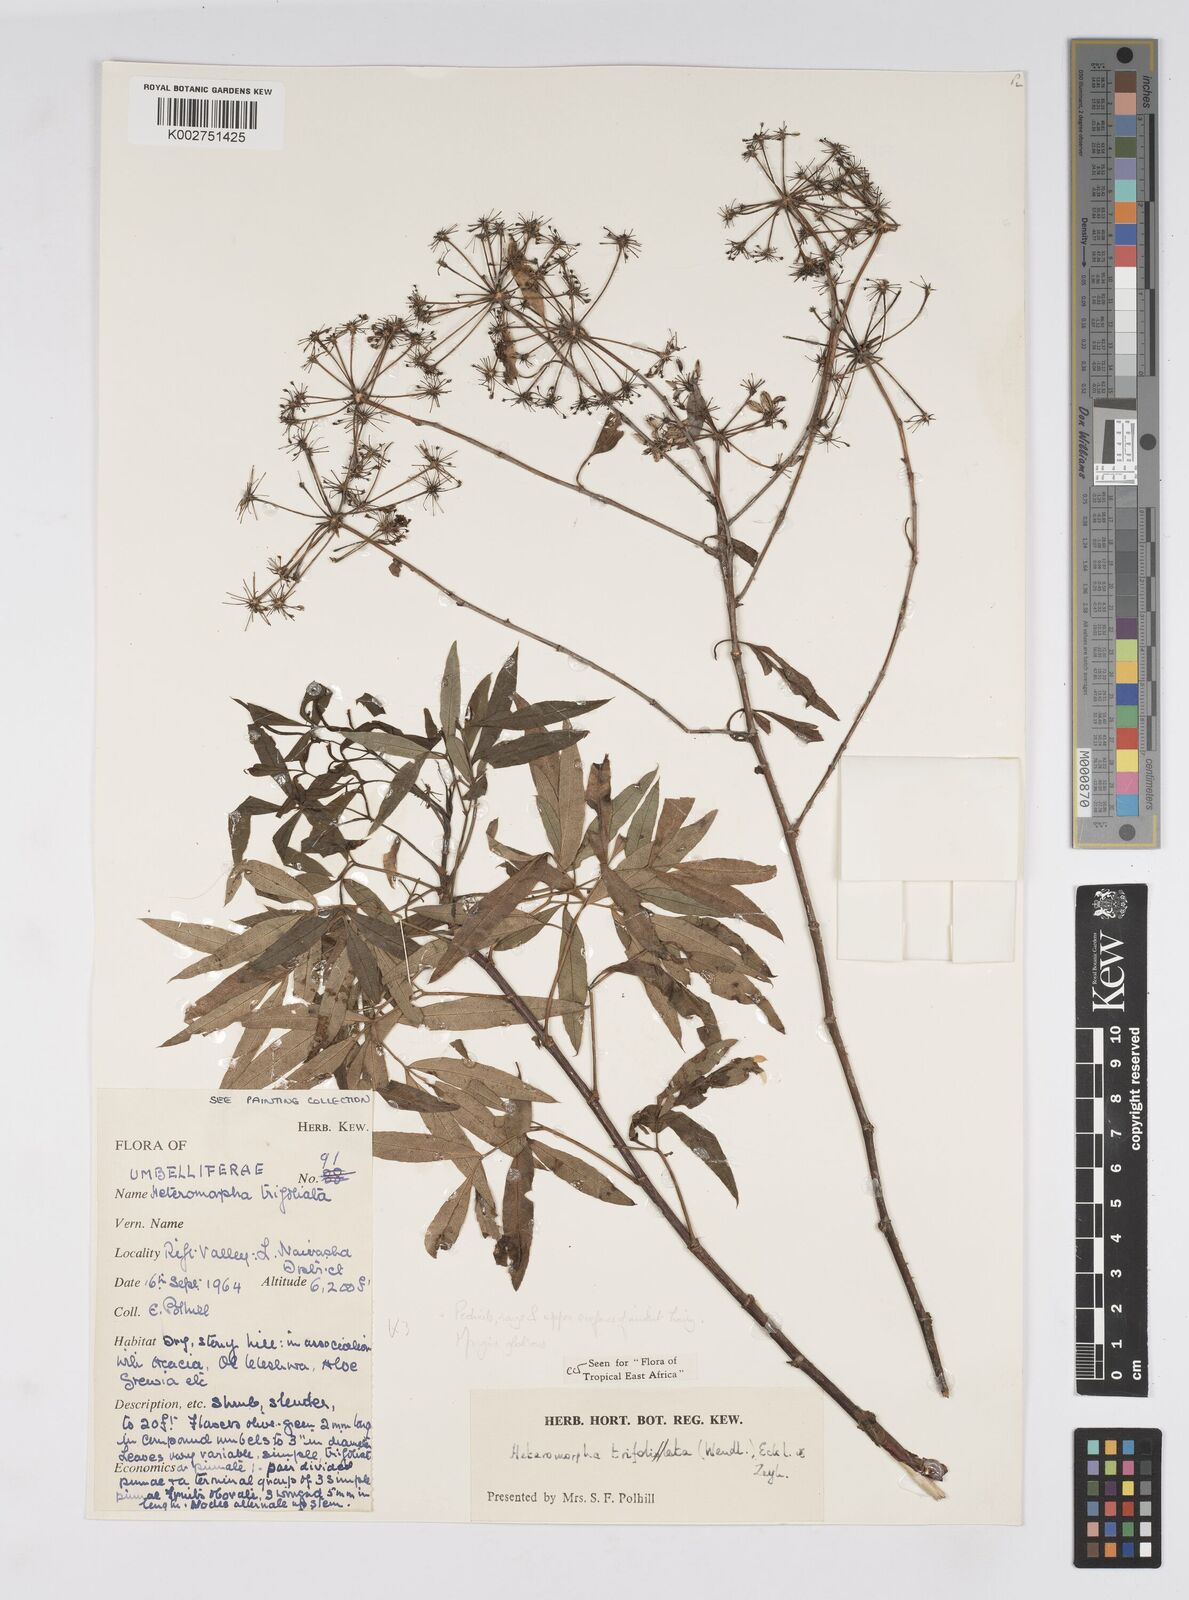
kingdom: Plantae
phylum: Tracheophyta
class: Magnoliopsida
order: Apiales
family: Apiaceae
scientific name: Apiaceae
